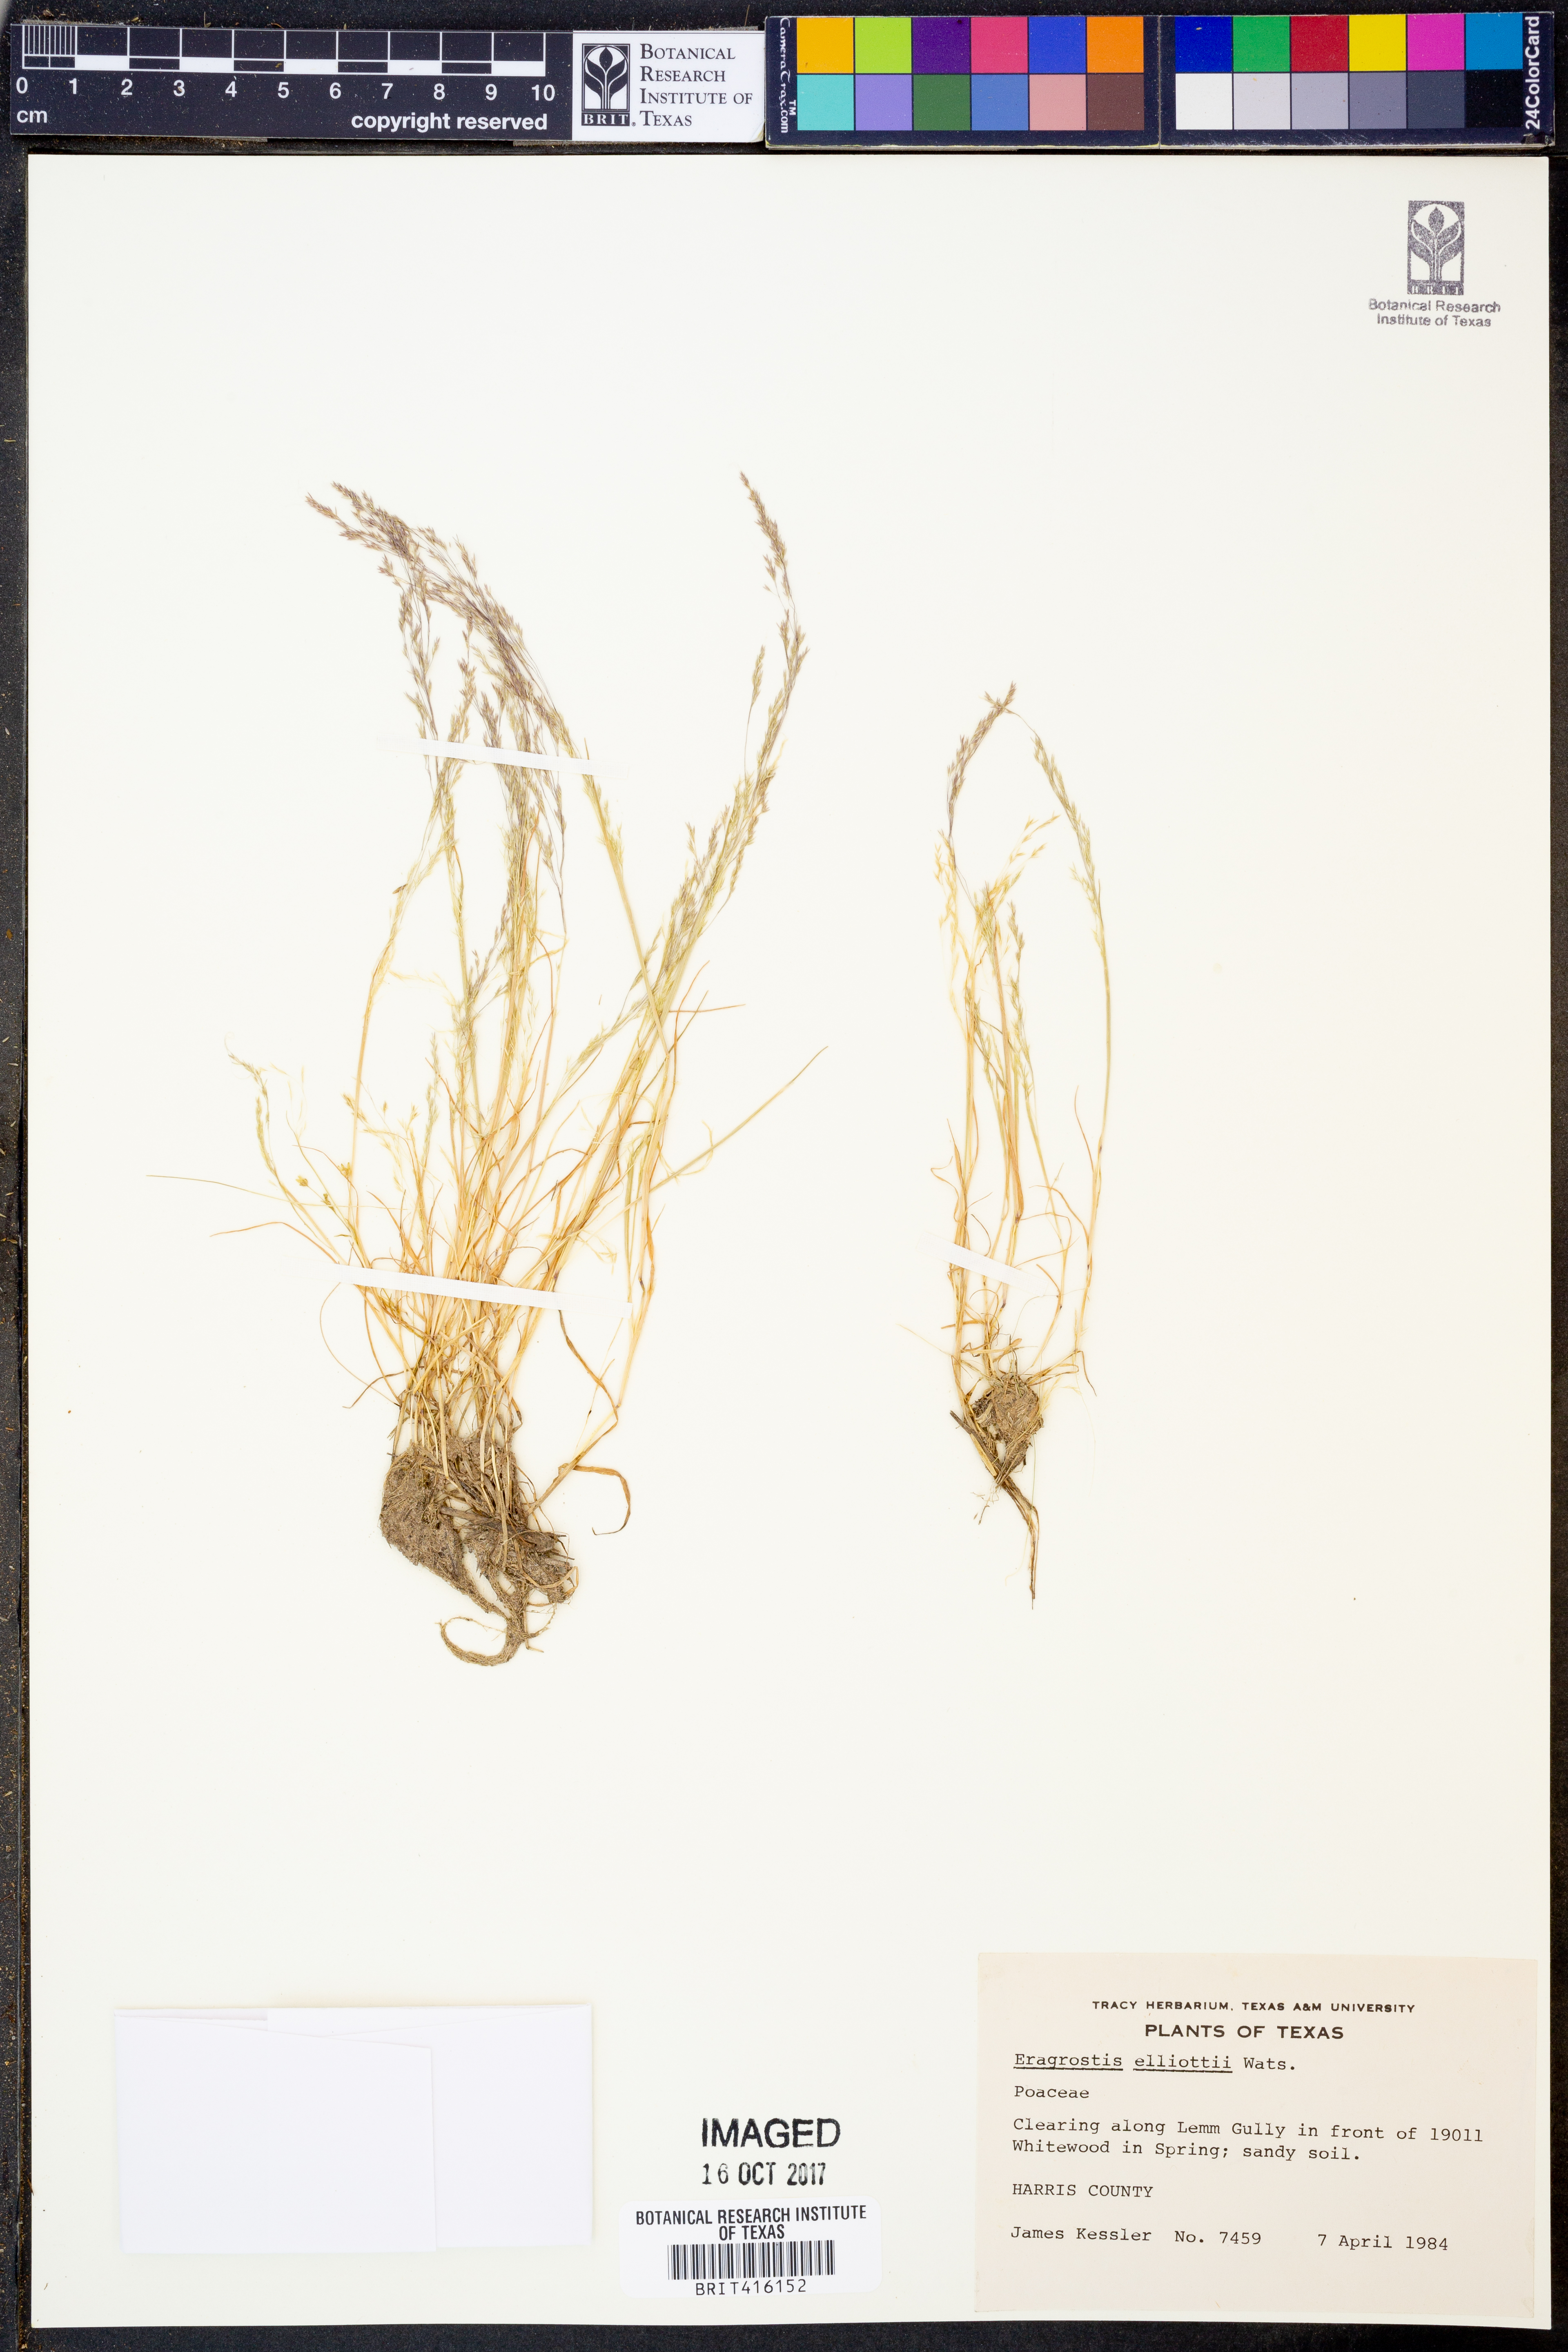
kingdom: Plantae
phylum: Tracheophyta
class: Liliopsida
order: Poales
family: Poaceae
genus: Eragrostis
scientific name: Eragrostis elliottii
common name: Elliott's love grass
